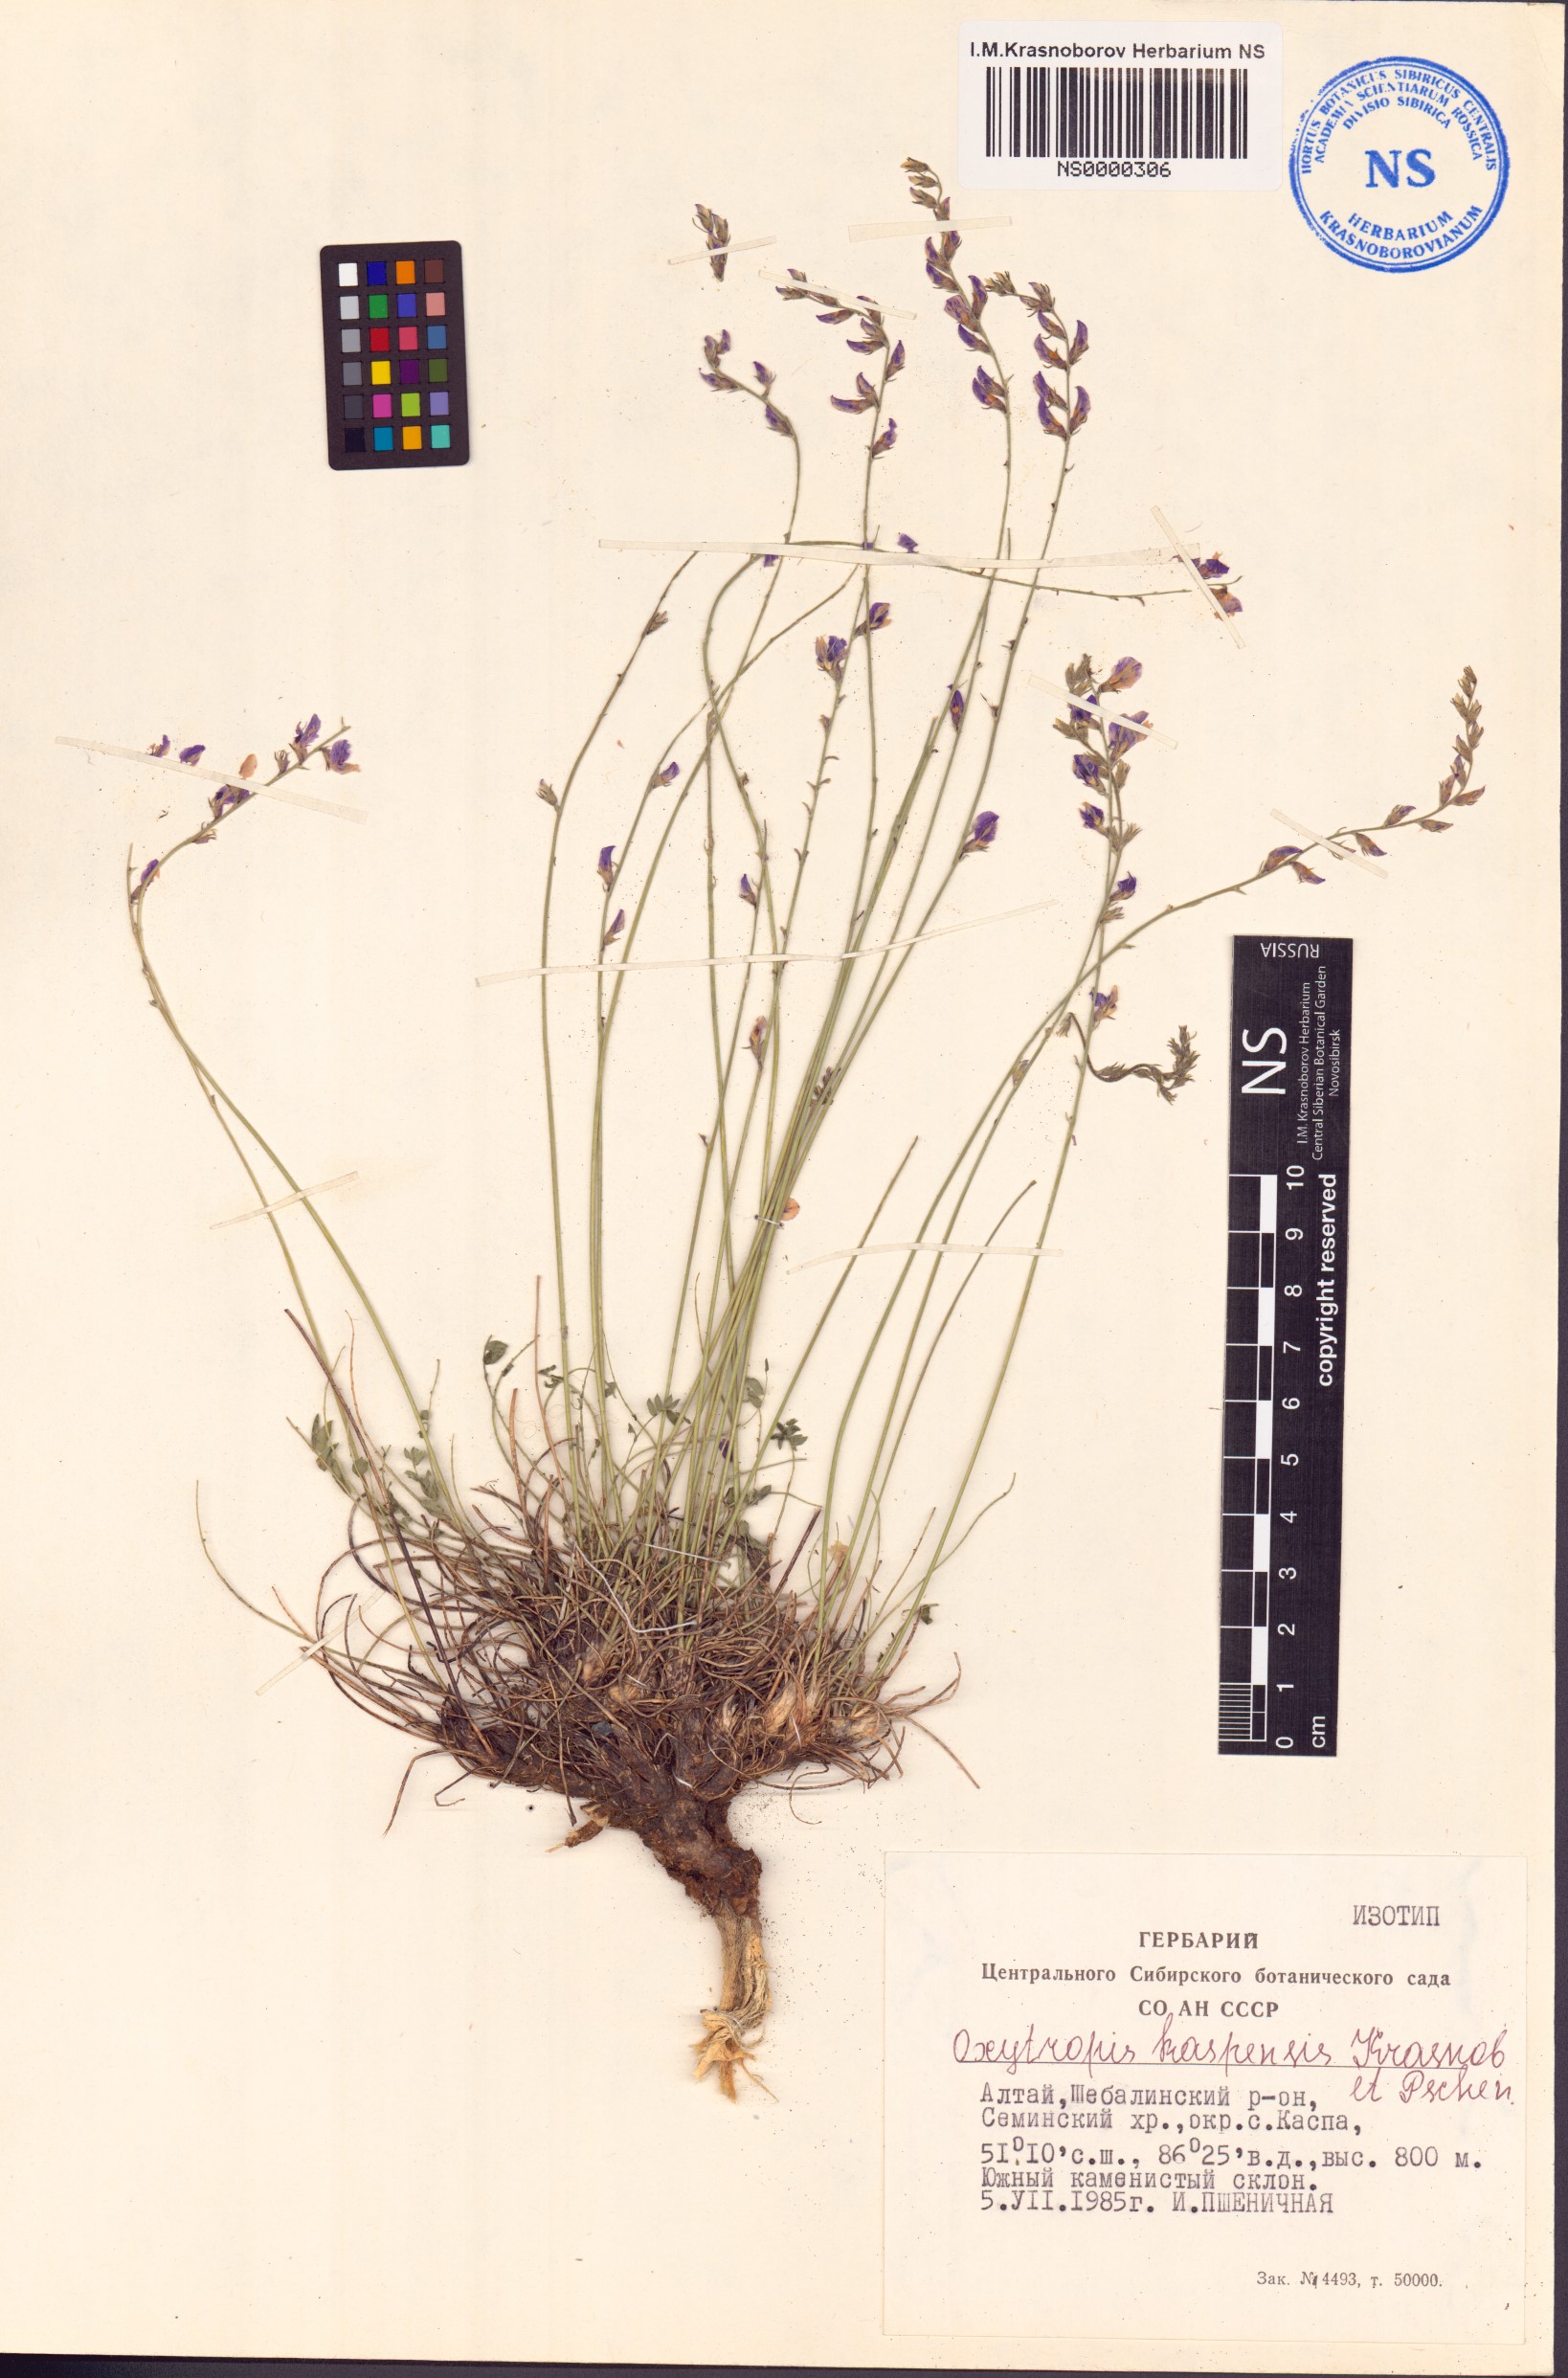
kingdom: Plantae
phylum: Tracheophyta
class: Magnoliopsida
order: Fabales
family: Fabaceae
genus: Oxytropis
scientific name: Oxytropis kaspensis
